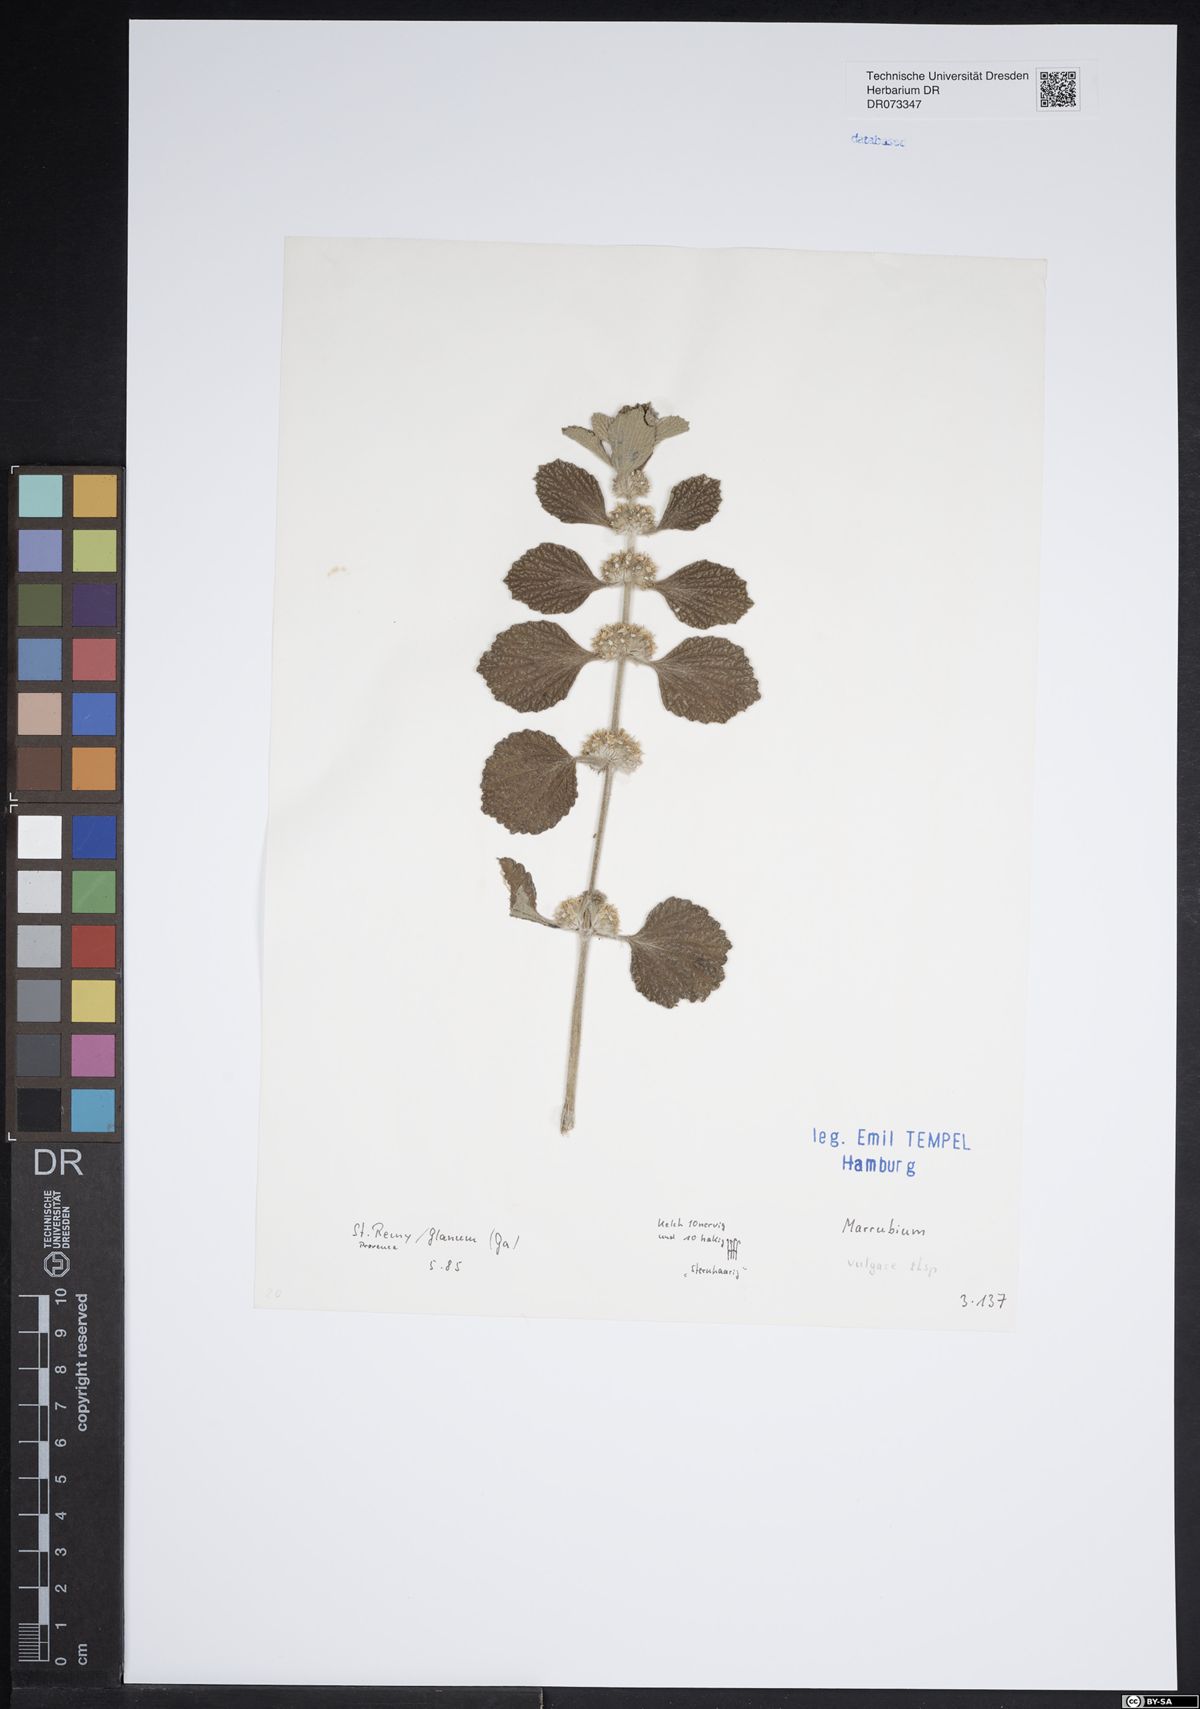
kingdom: Plantae
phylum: Tracheophyta
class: Magnoliopsida
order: Lamiales
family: Lamiaceae
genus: Marrubium
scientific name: Marrubium vulgare
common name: Horehound
